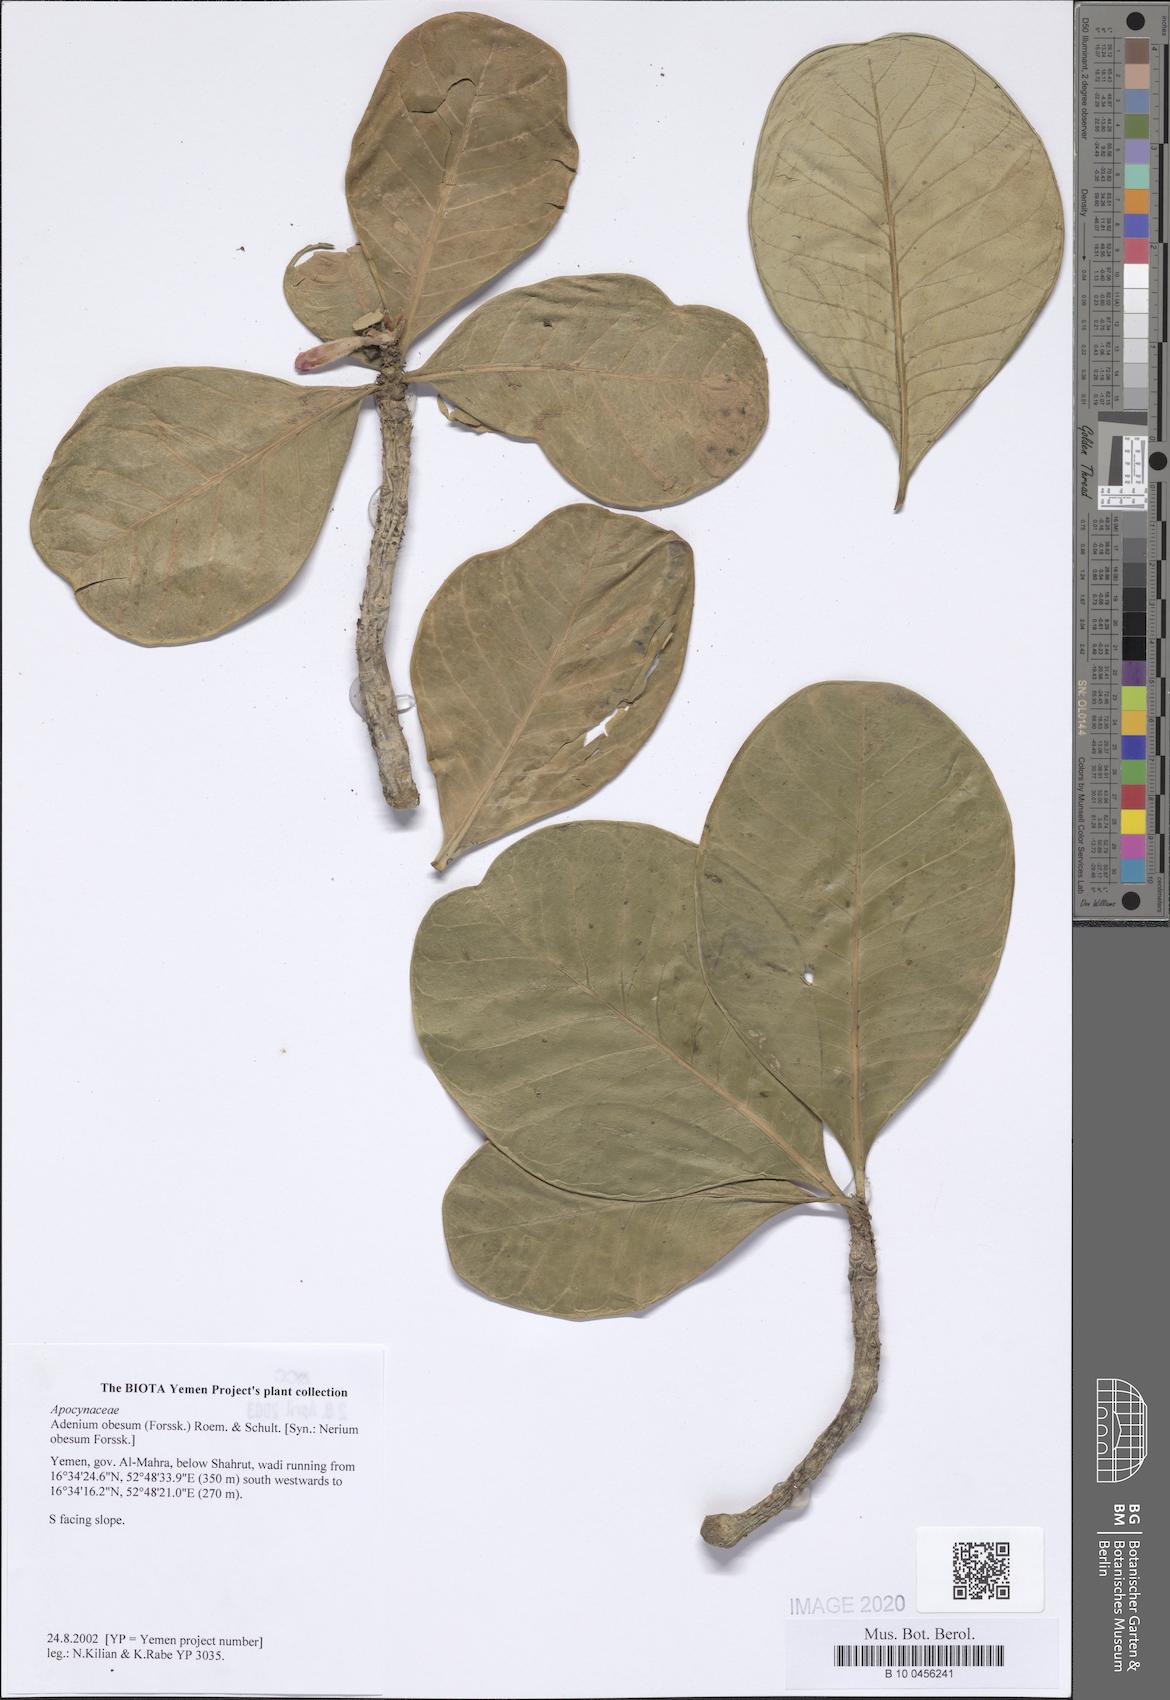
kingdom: Plantae
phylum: Tracheophyta
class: Magnoliopsida
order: Gentianales
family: Apocynaceae
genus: Adenium
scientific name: Adenium obesum
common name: Desert-rose
